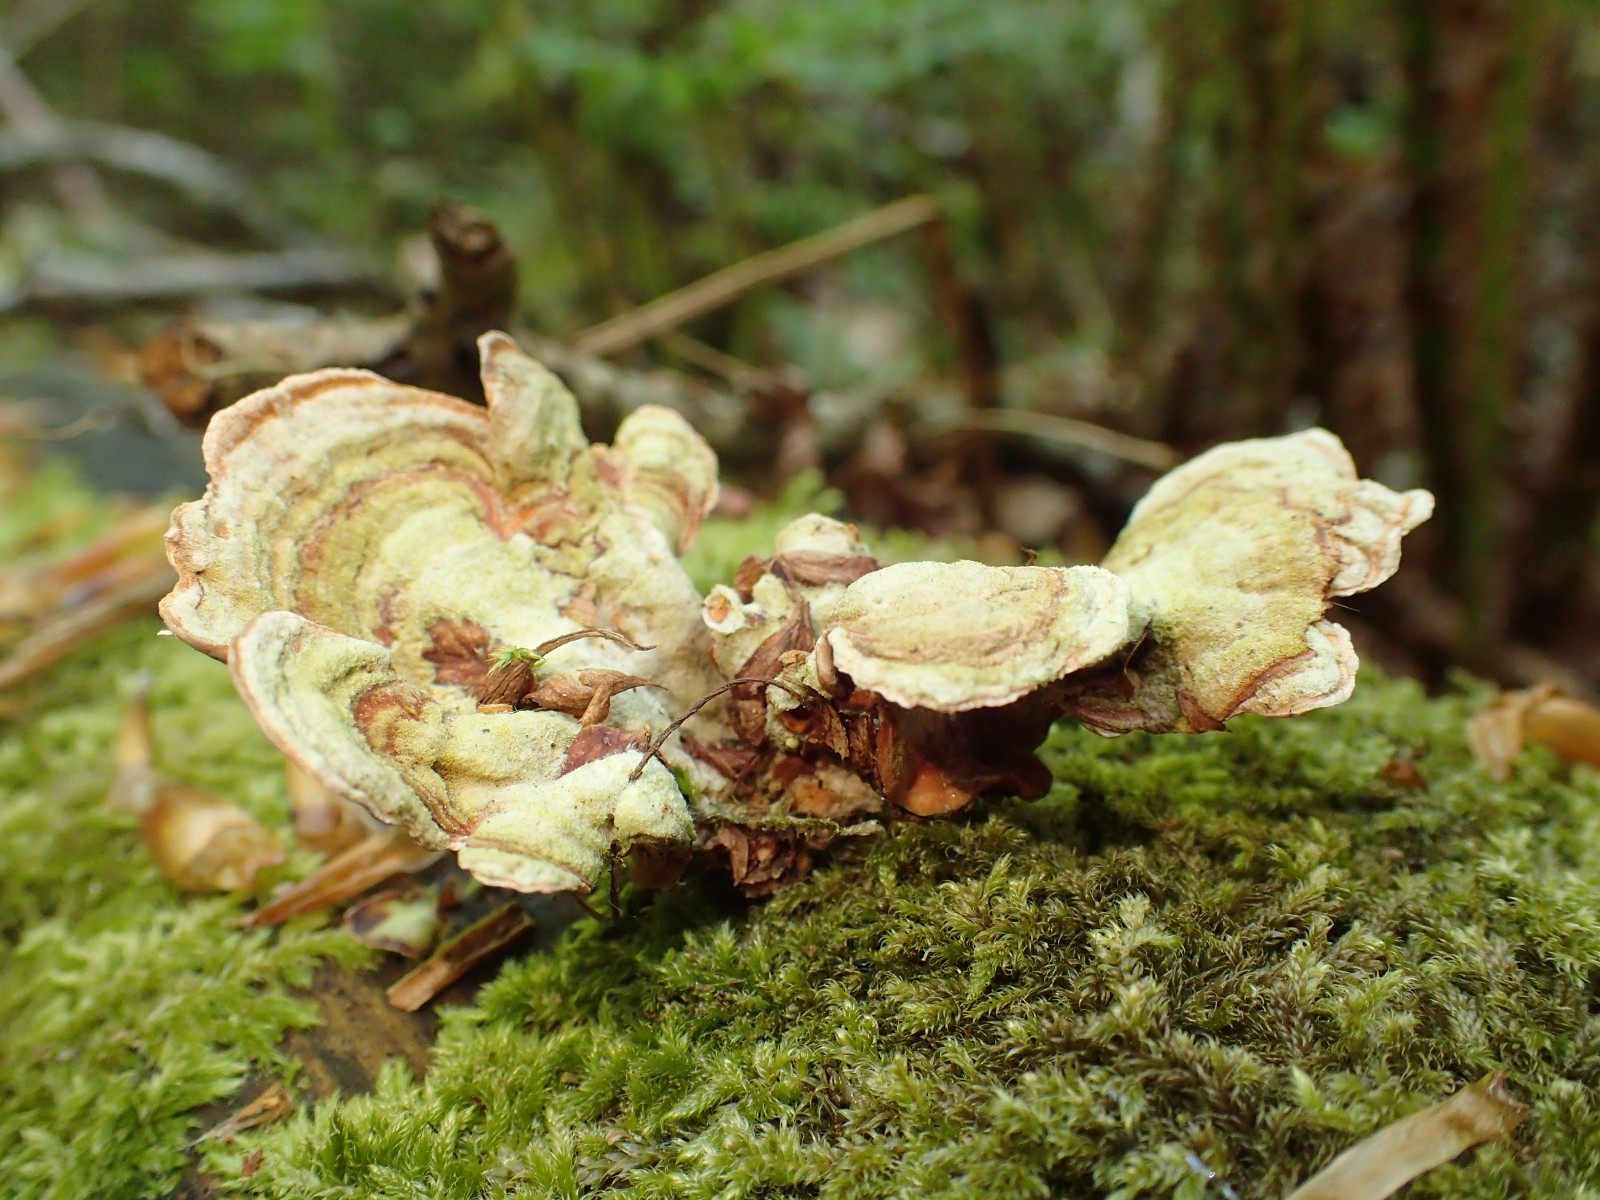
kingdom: Fungi
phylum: Basidiomycota
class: Agaricomycetes
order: Russulales
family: Stereaceae
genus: Stereum
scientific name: Stereum subtomentosum
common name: smuk lædersvamp
